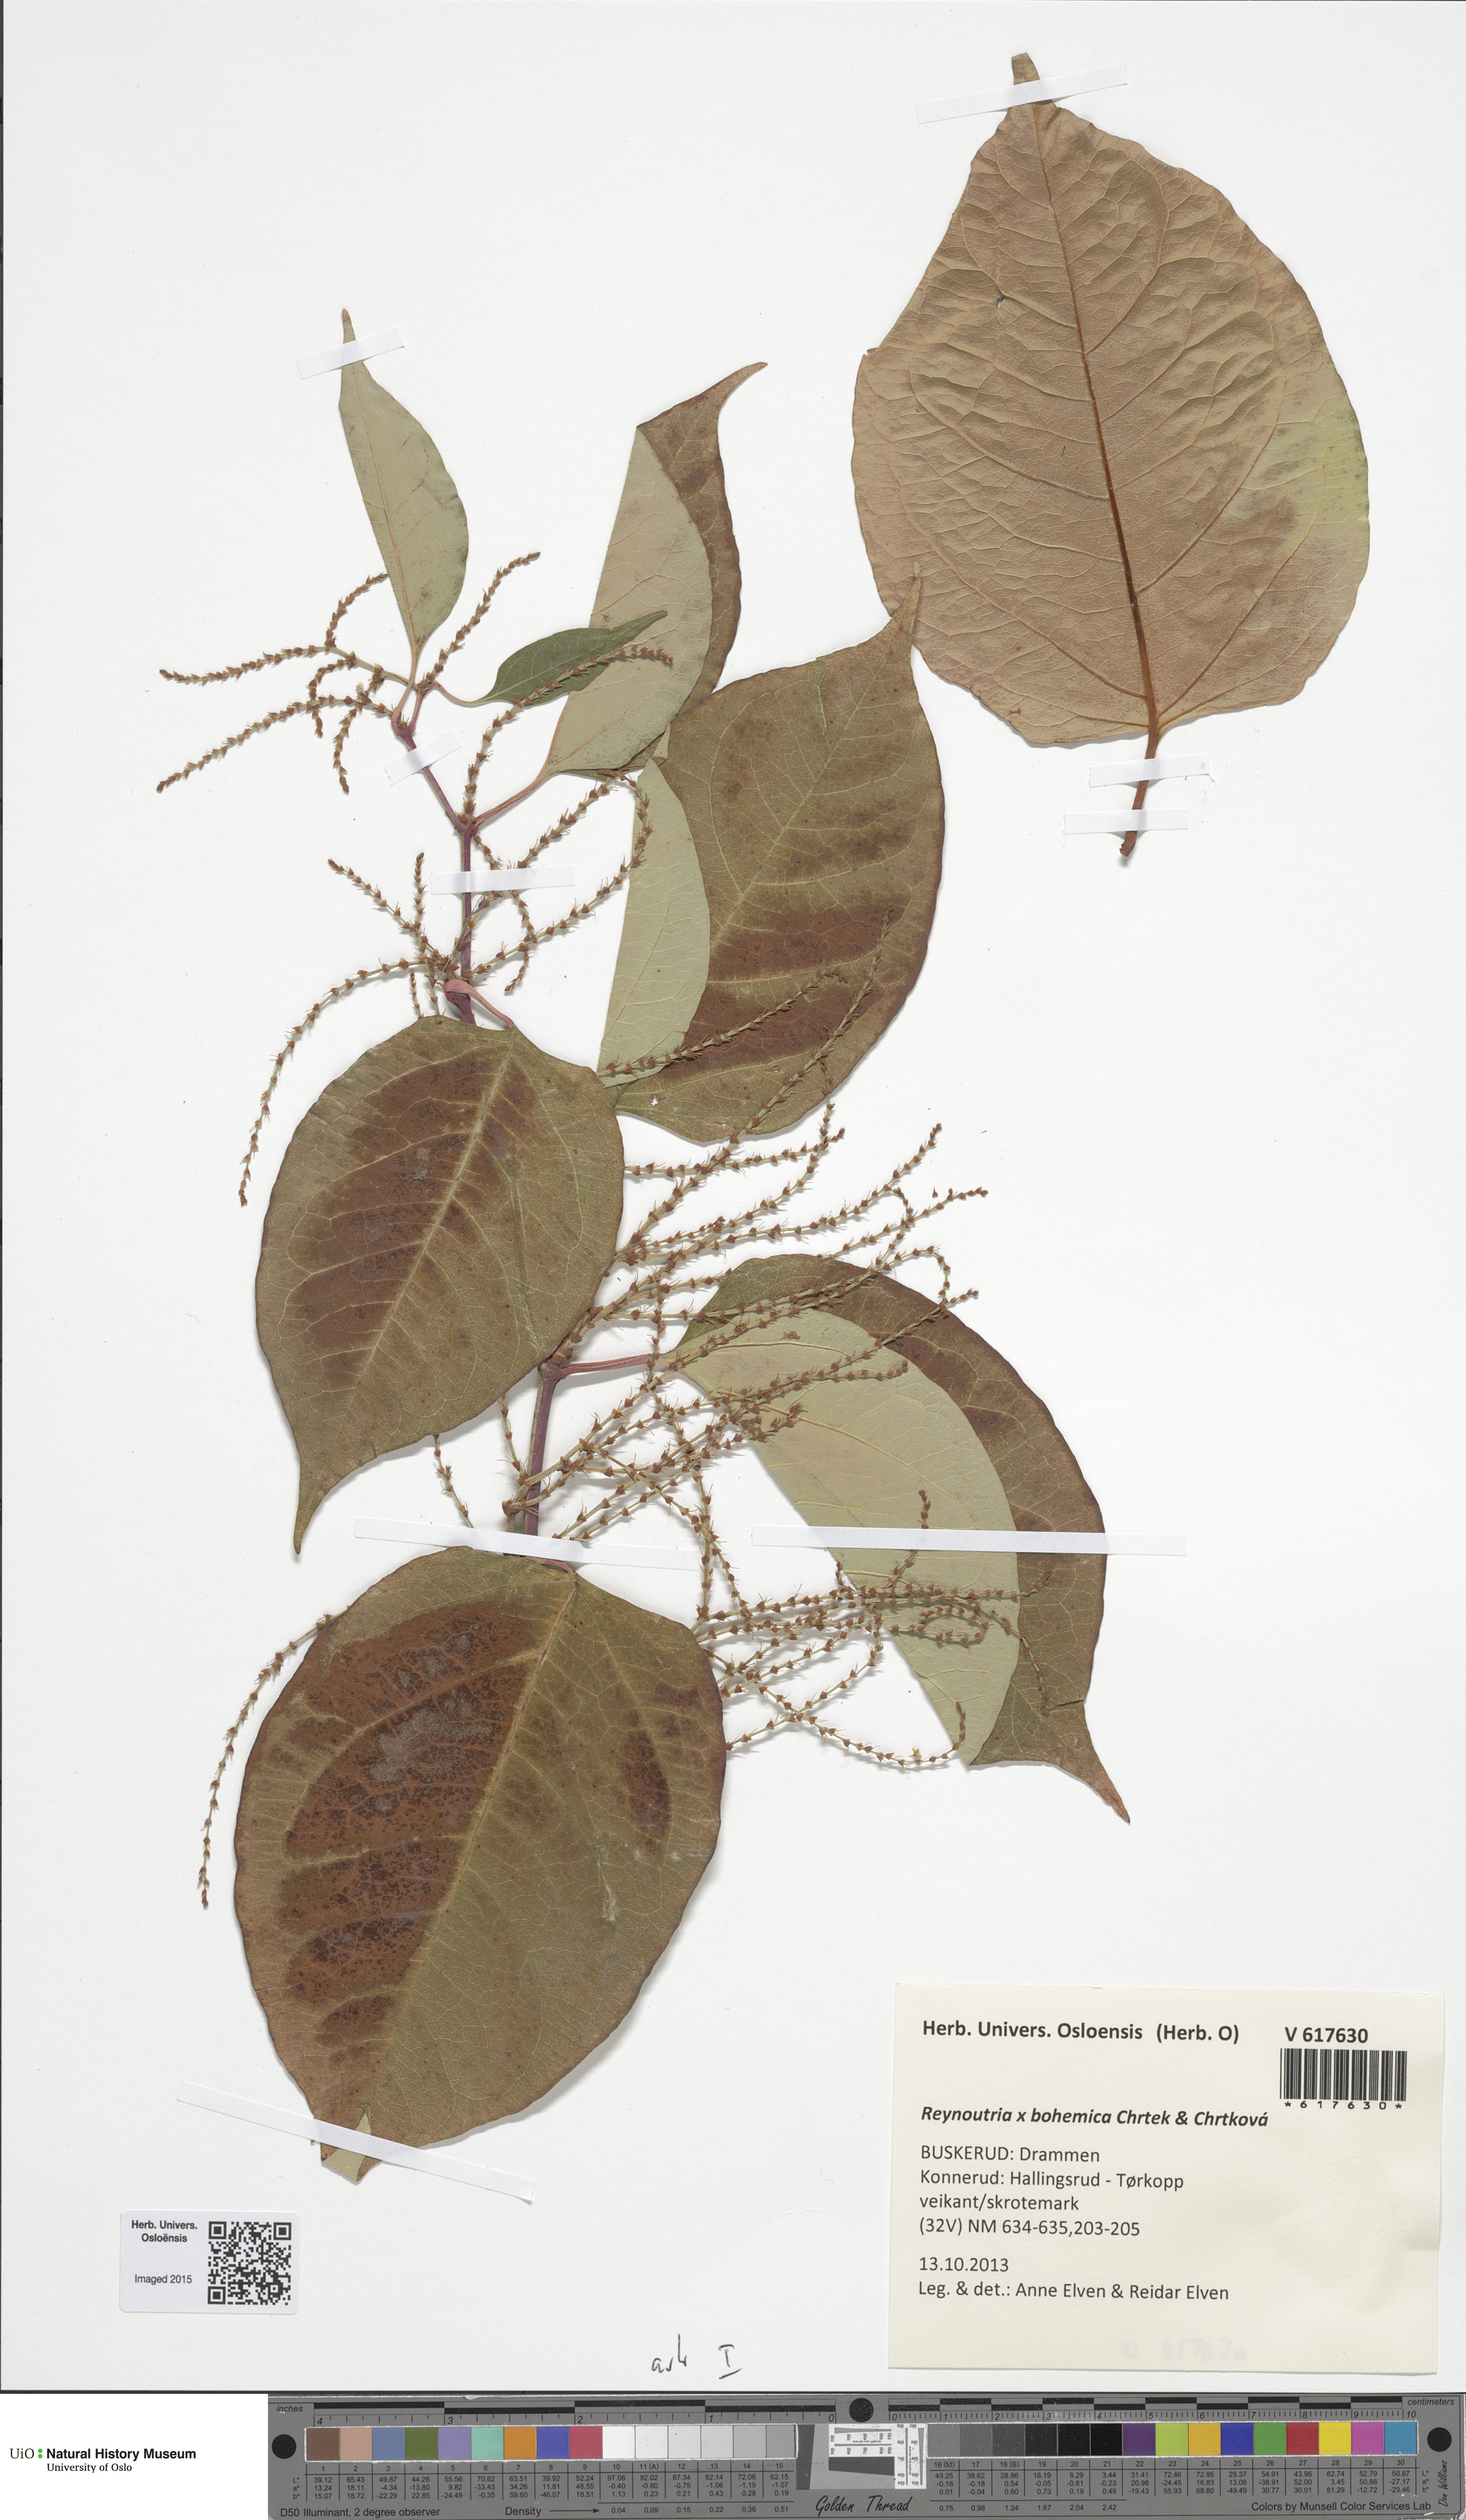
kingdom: Plantae
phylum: Tracheophyta
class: Magnoliopsida
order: Caryophyllales
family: Polygonaceae
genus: Reynoutria
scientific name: Reynoutria bohemica
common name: Bohemian knotweed
